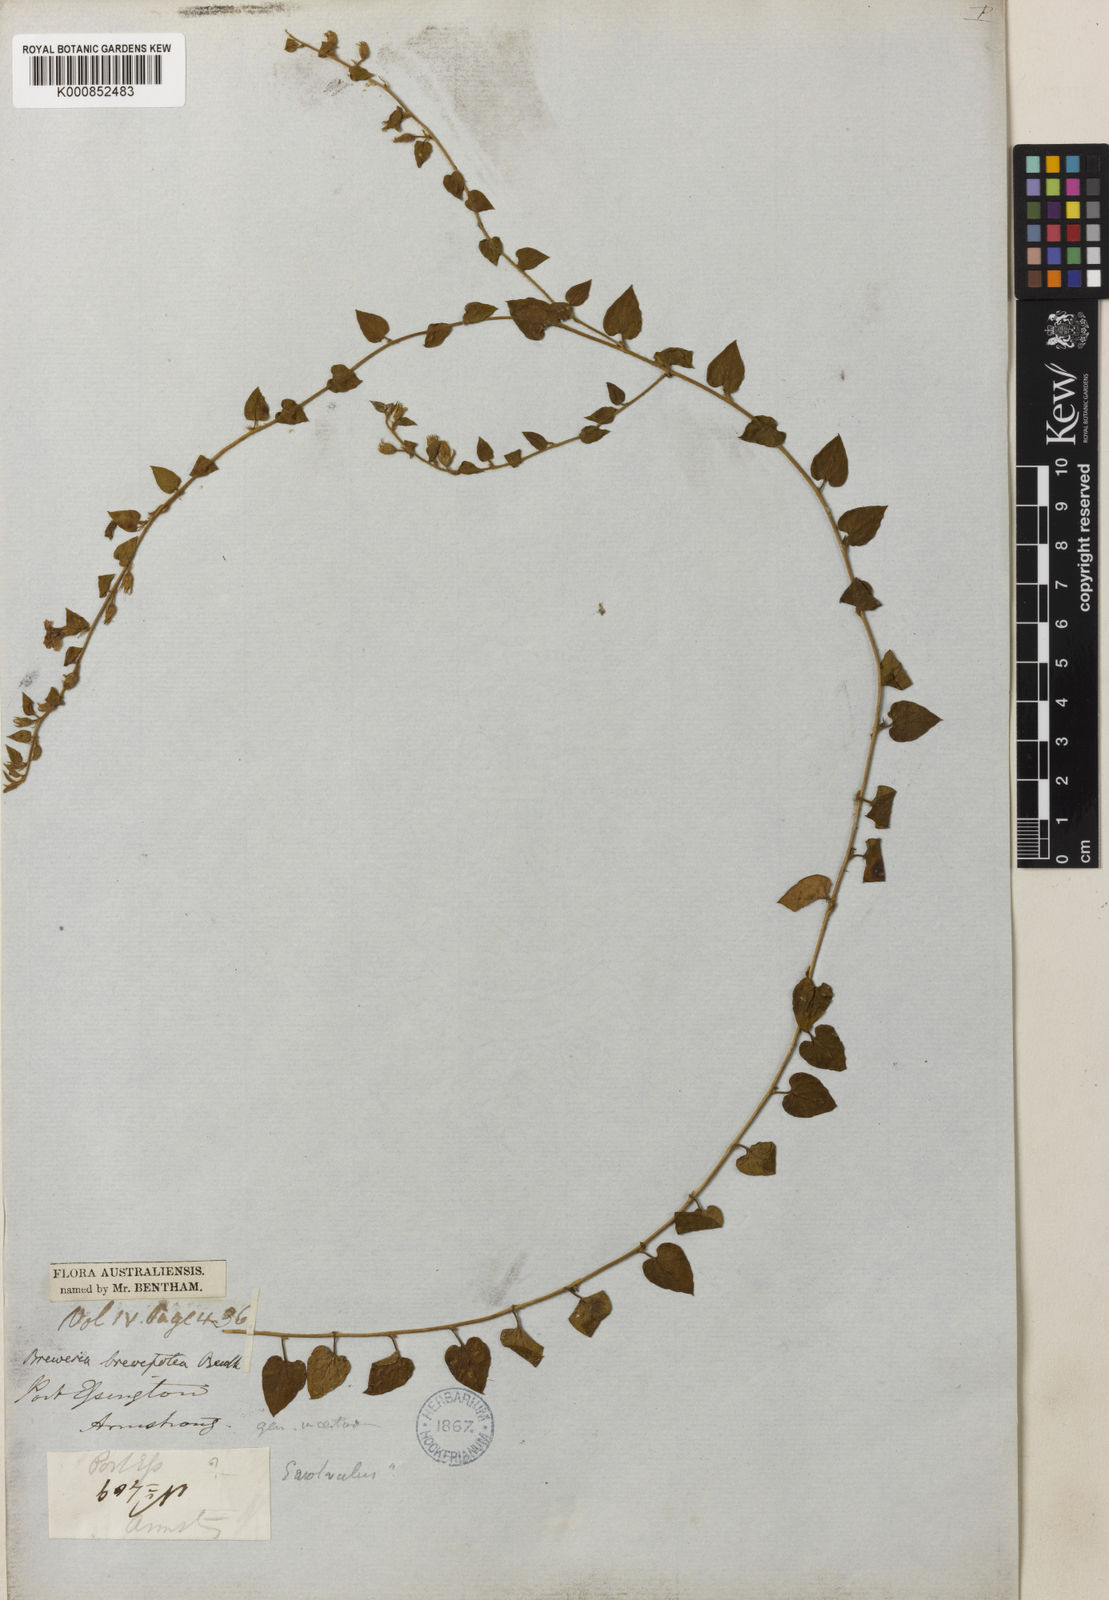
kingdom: Plantae
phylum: Tracheophyta
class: Magnoliopsida
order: Solanales
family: Convolvulaceae
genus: Bonamia
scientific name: Bonamia brevifolia
